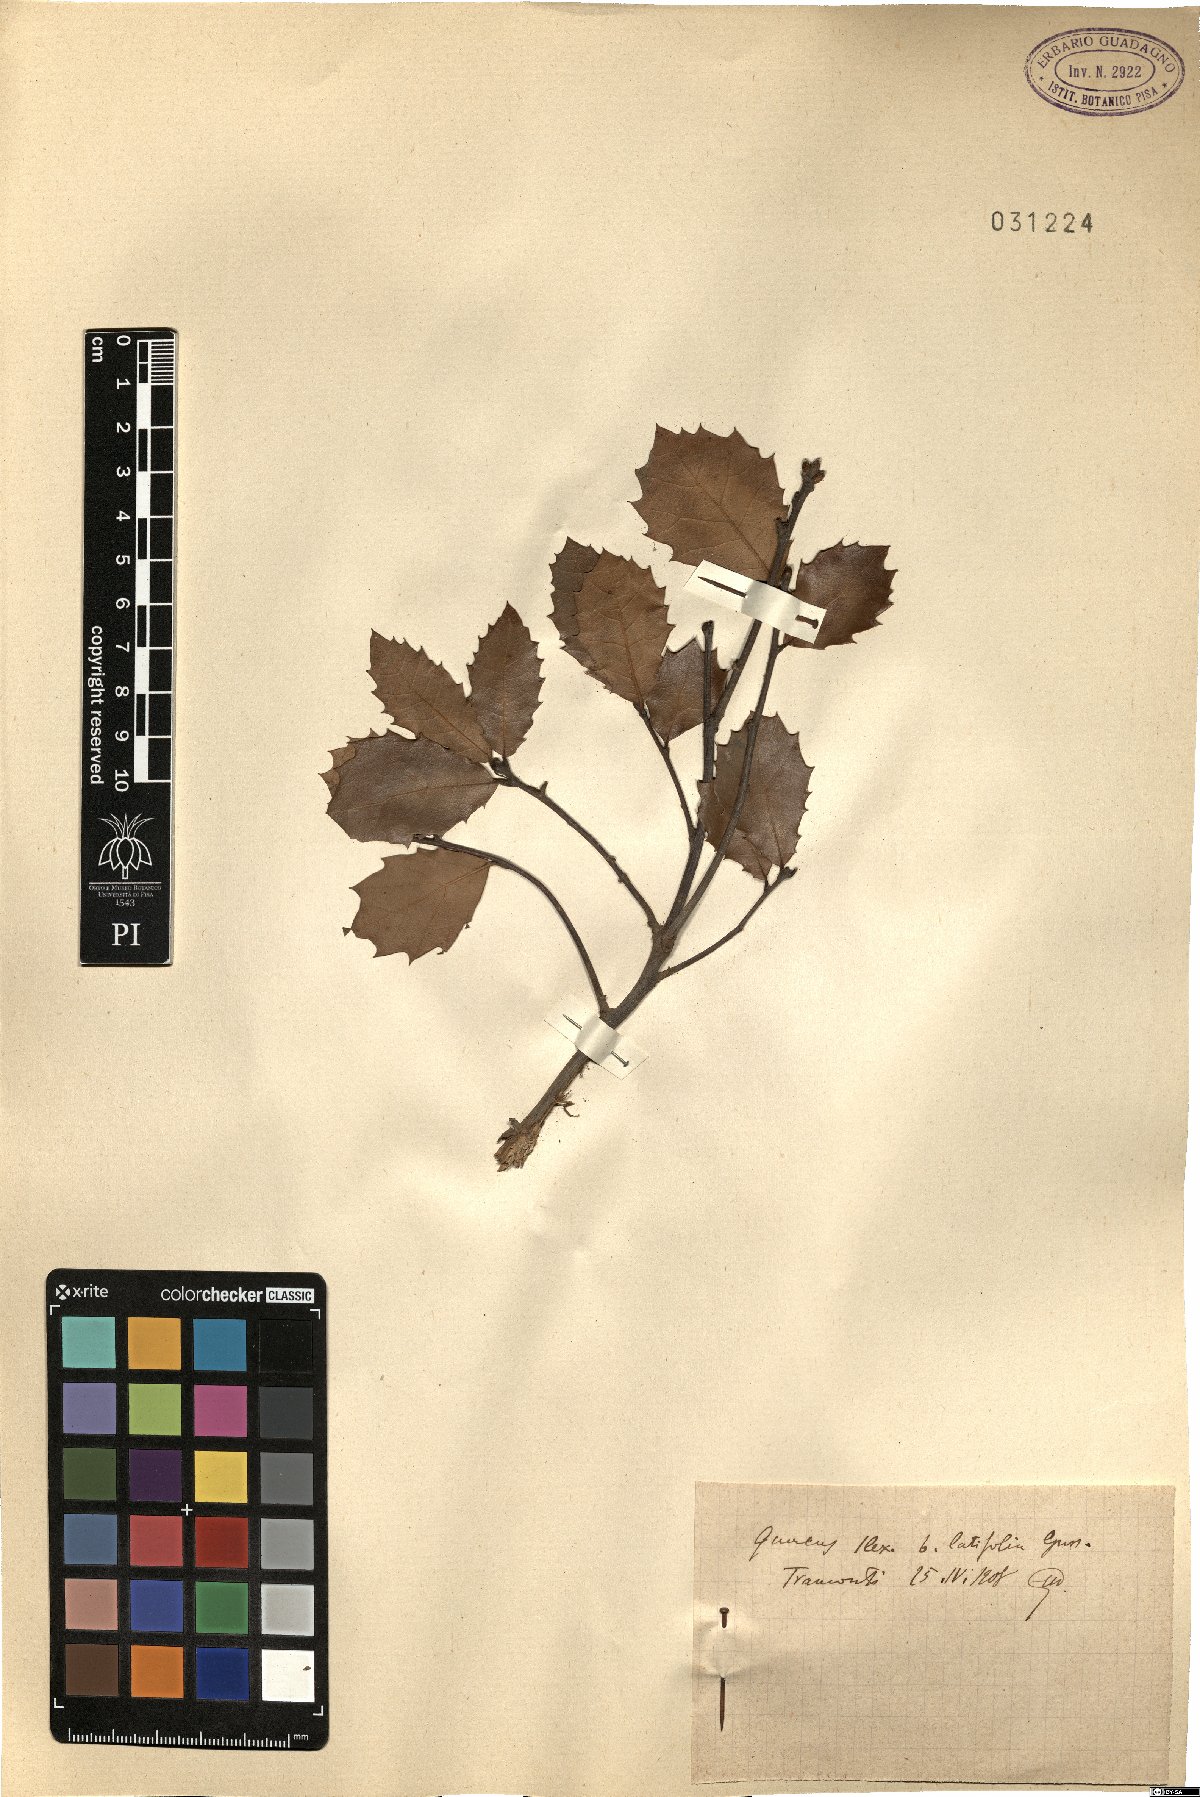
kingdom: Plantae
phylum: Tracheophyta
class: Magnoliopsida
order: Fagales
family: Fagaceae
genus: Quercus
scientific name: Quercus ilex
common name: Evergreen oak
